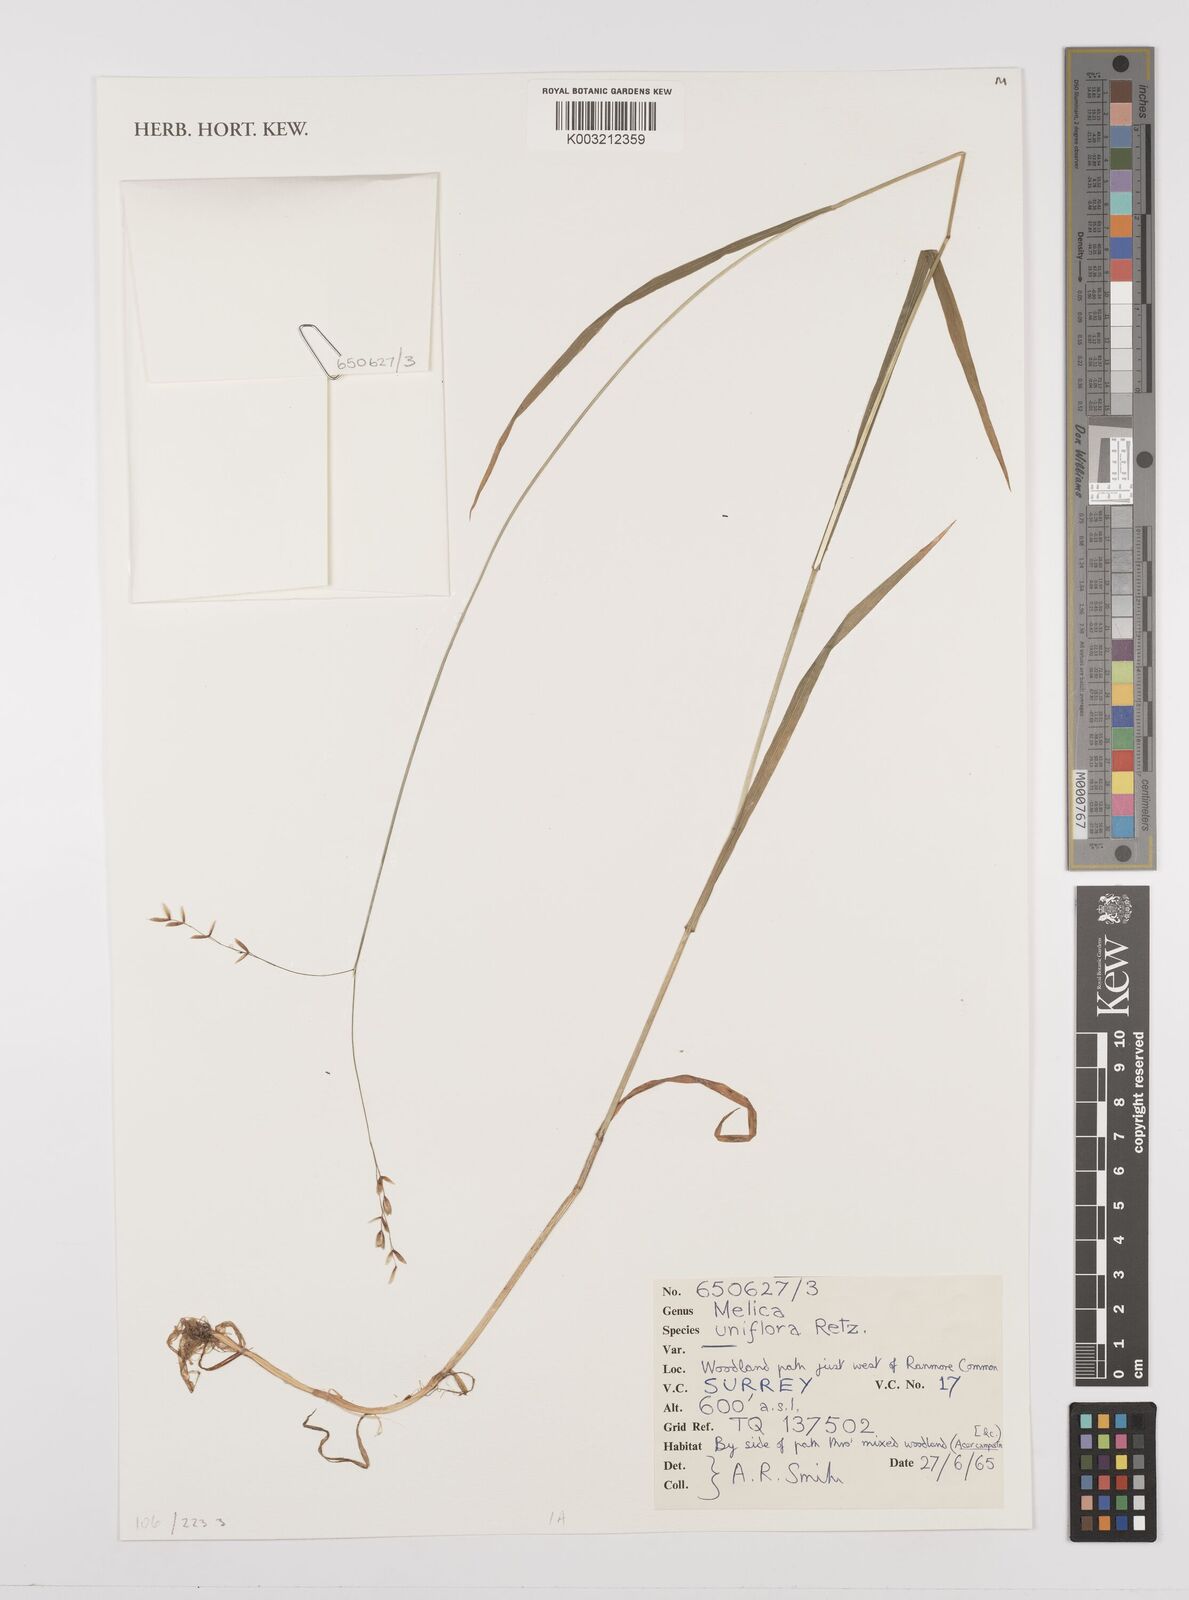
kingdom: Plantae
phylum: Tracheophyta
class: Liliopsida
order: Poales
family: Poaceae
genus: Melica
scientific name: Melica uniflora
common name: Wood melick
